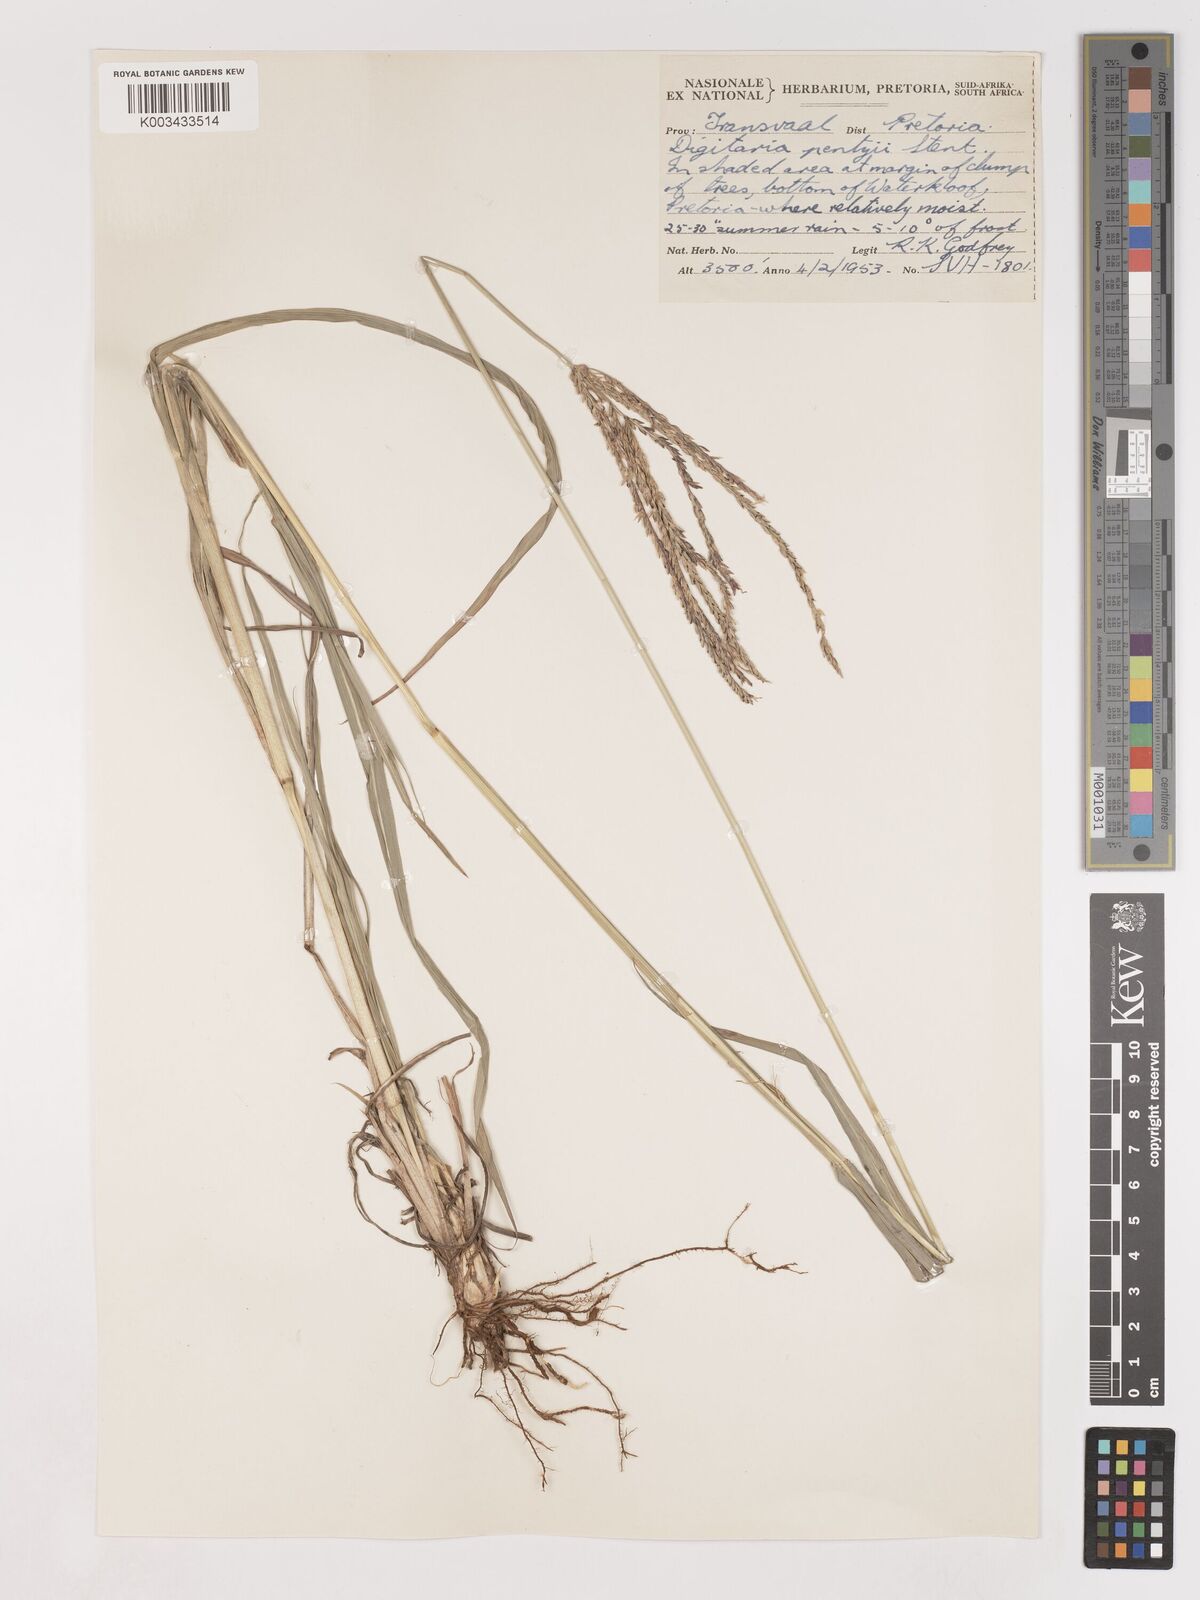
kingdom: Plantae
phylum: Tracheophyta
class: Liliopsida
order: Poales
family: Poaceae
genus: Digitaria
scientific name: Digitaria eriantha
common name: Digitgrass
